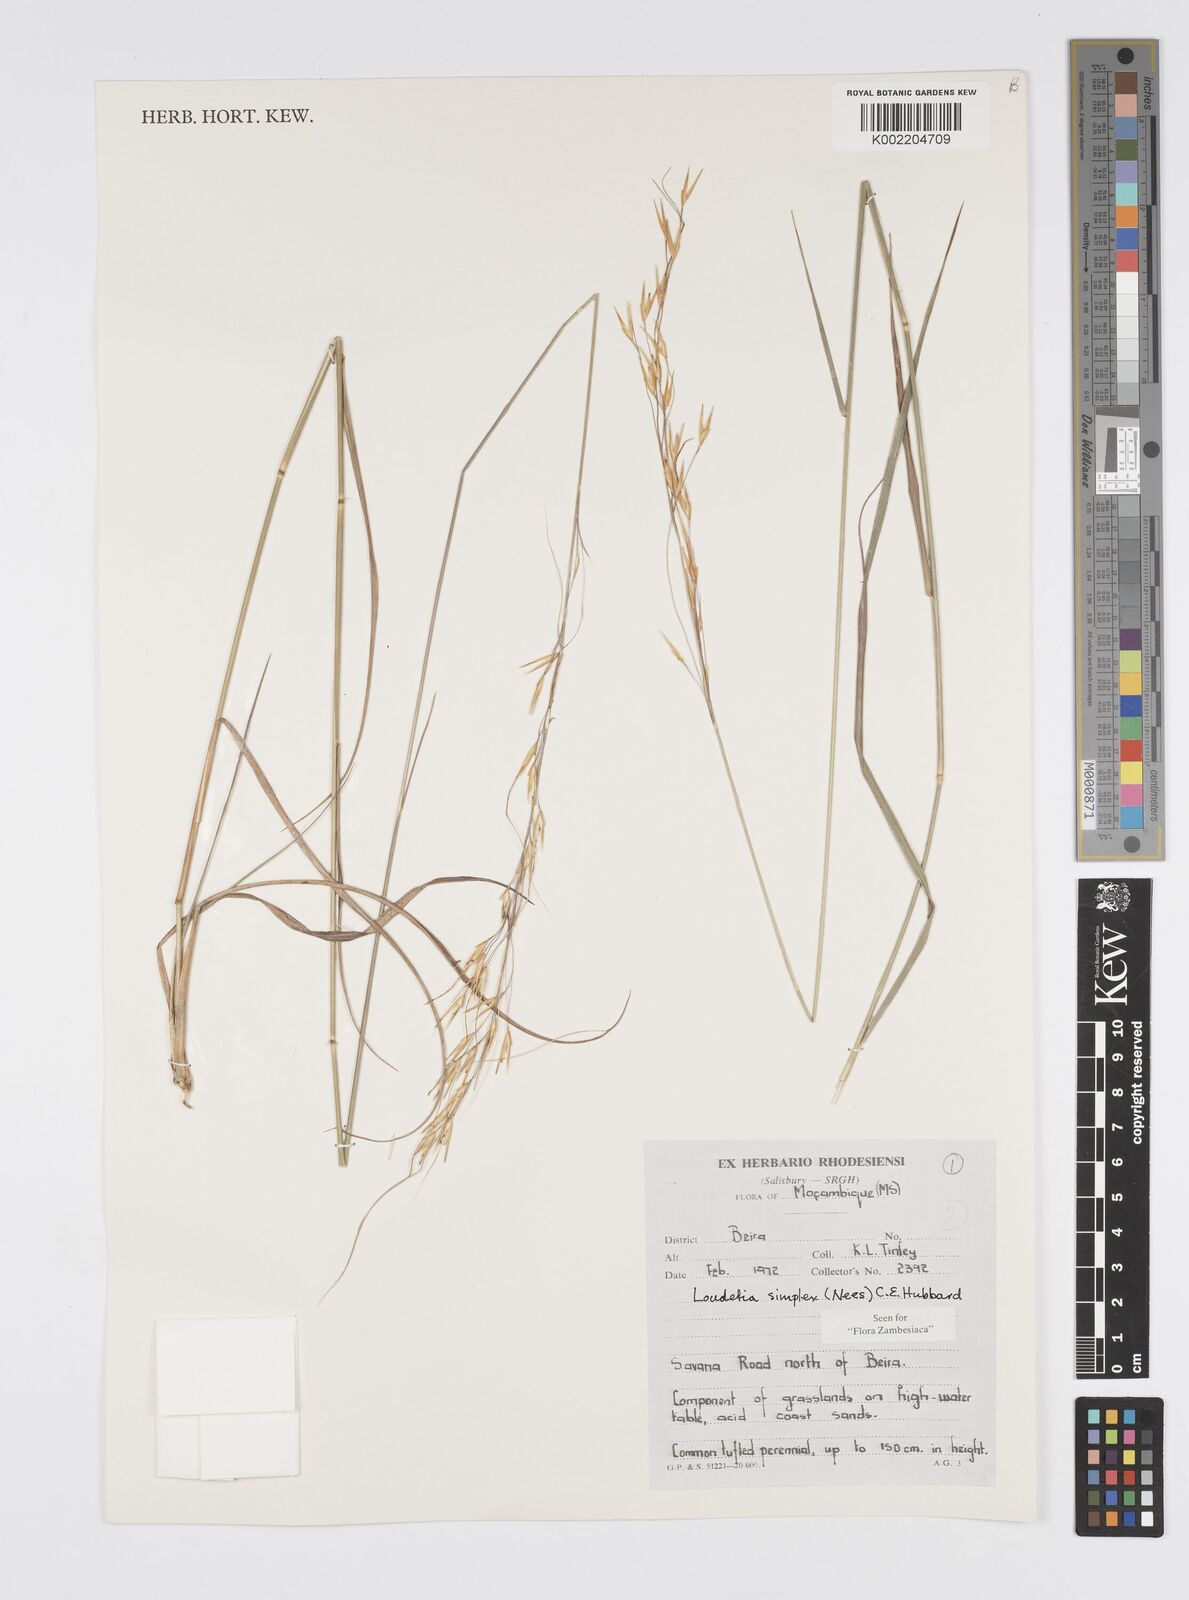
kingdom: Plantae
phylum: Tracheophyta
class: Liliopsida
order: Poales
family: Poaceae
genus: Loudetia
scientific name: Loudetia simplex
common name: Common russet grass
